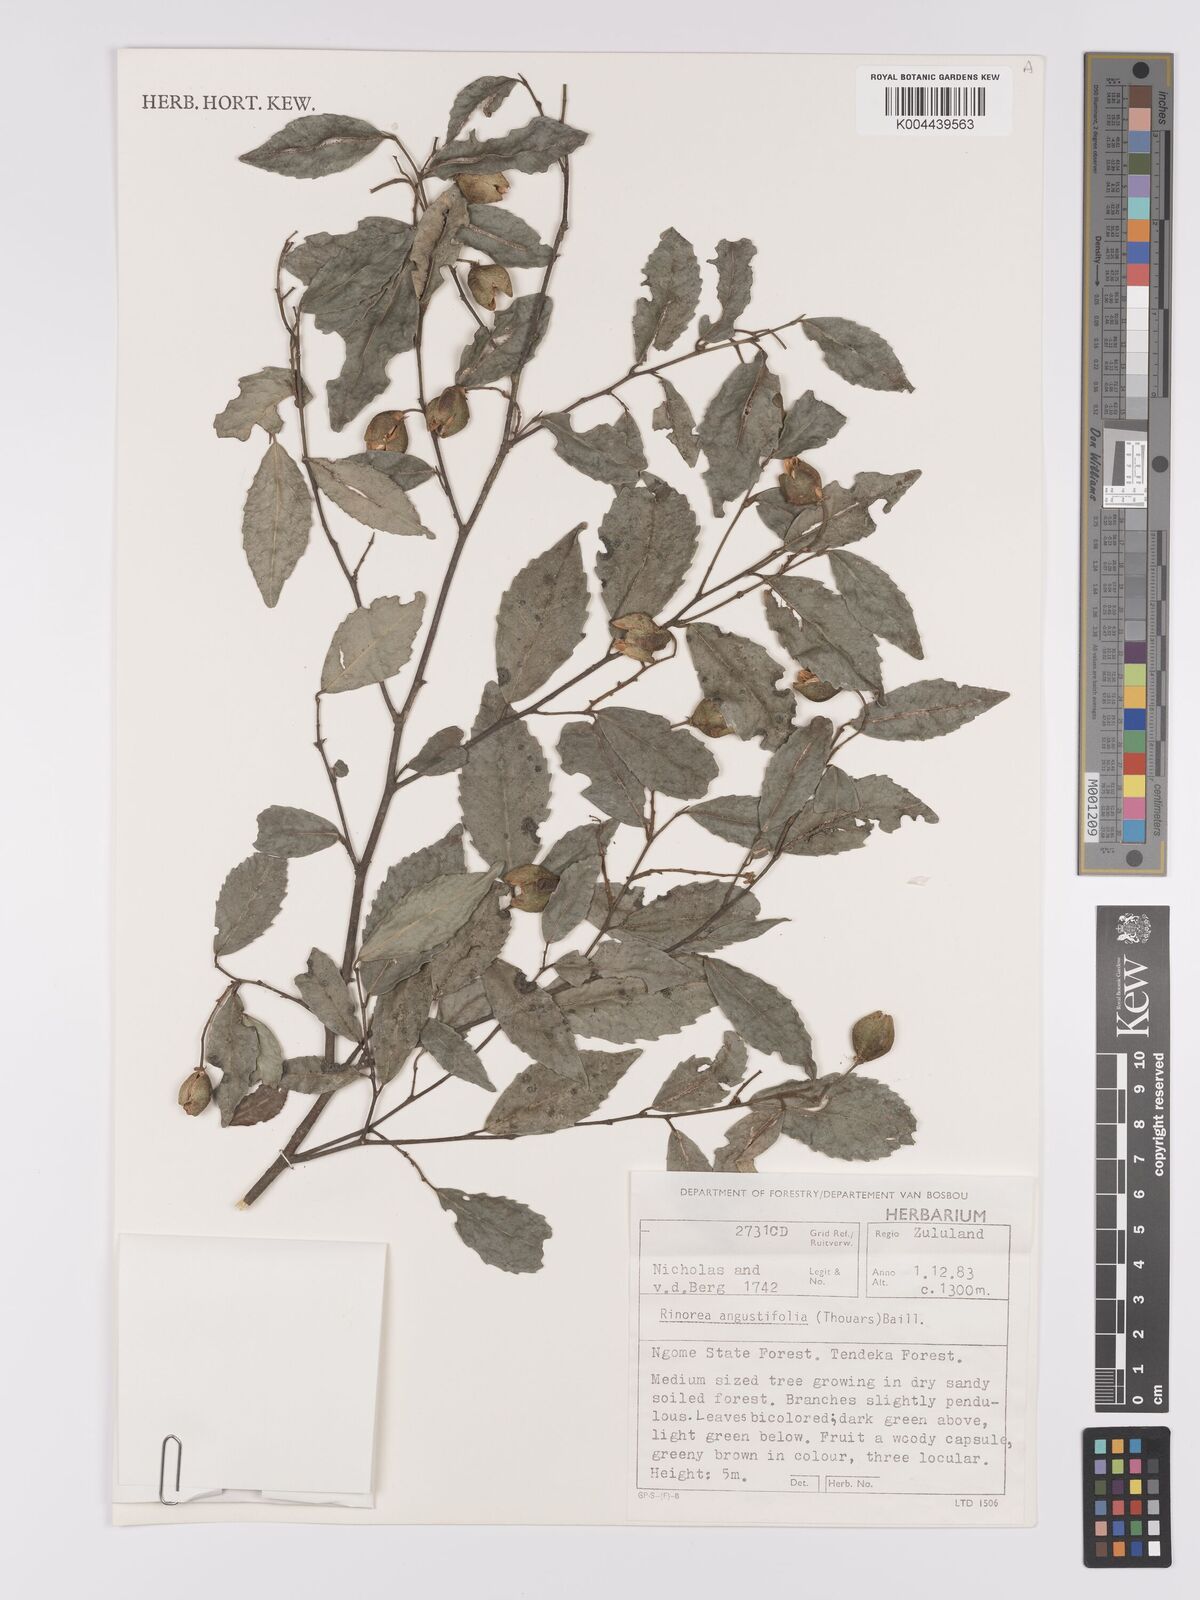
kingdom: Plantae
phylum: Tracheophyta
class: Magnoliopsida
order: Malpighiales
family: Violaceae
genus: Rinorea
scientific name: Rinorea angustifolia
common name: White violet-bush
